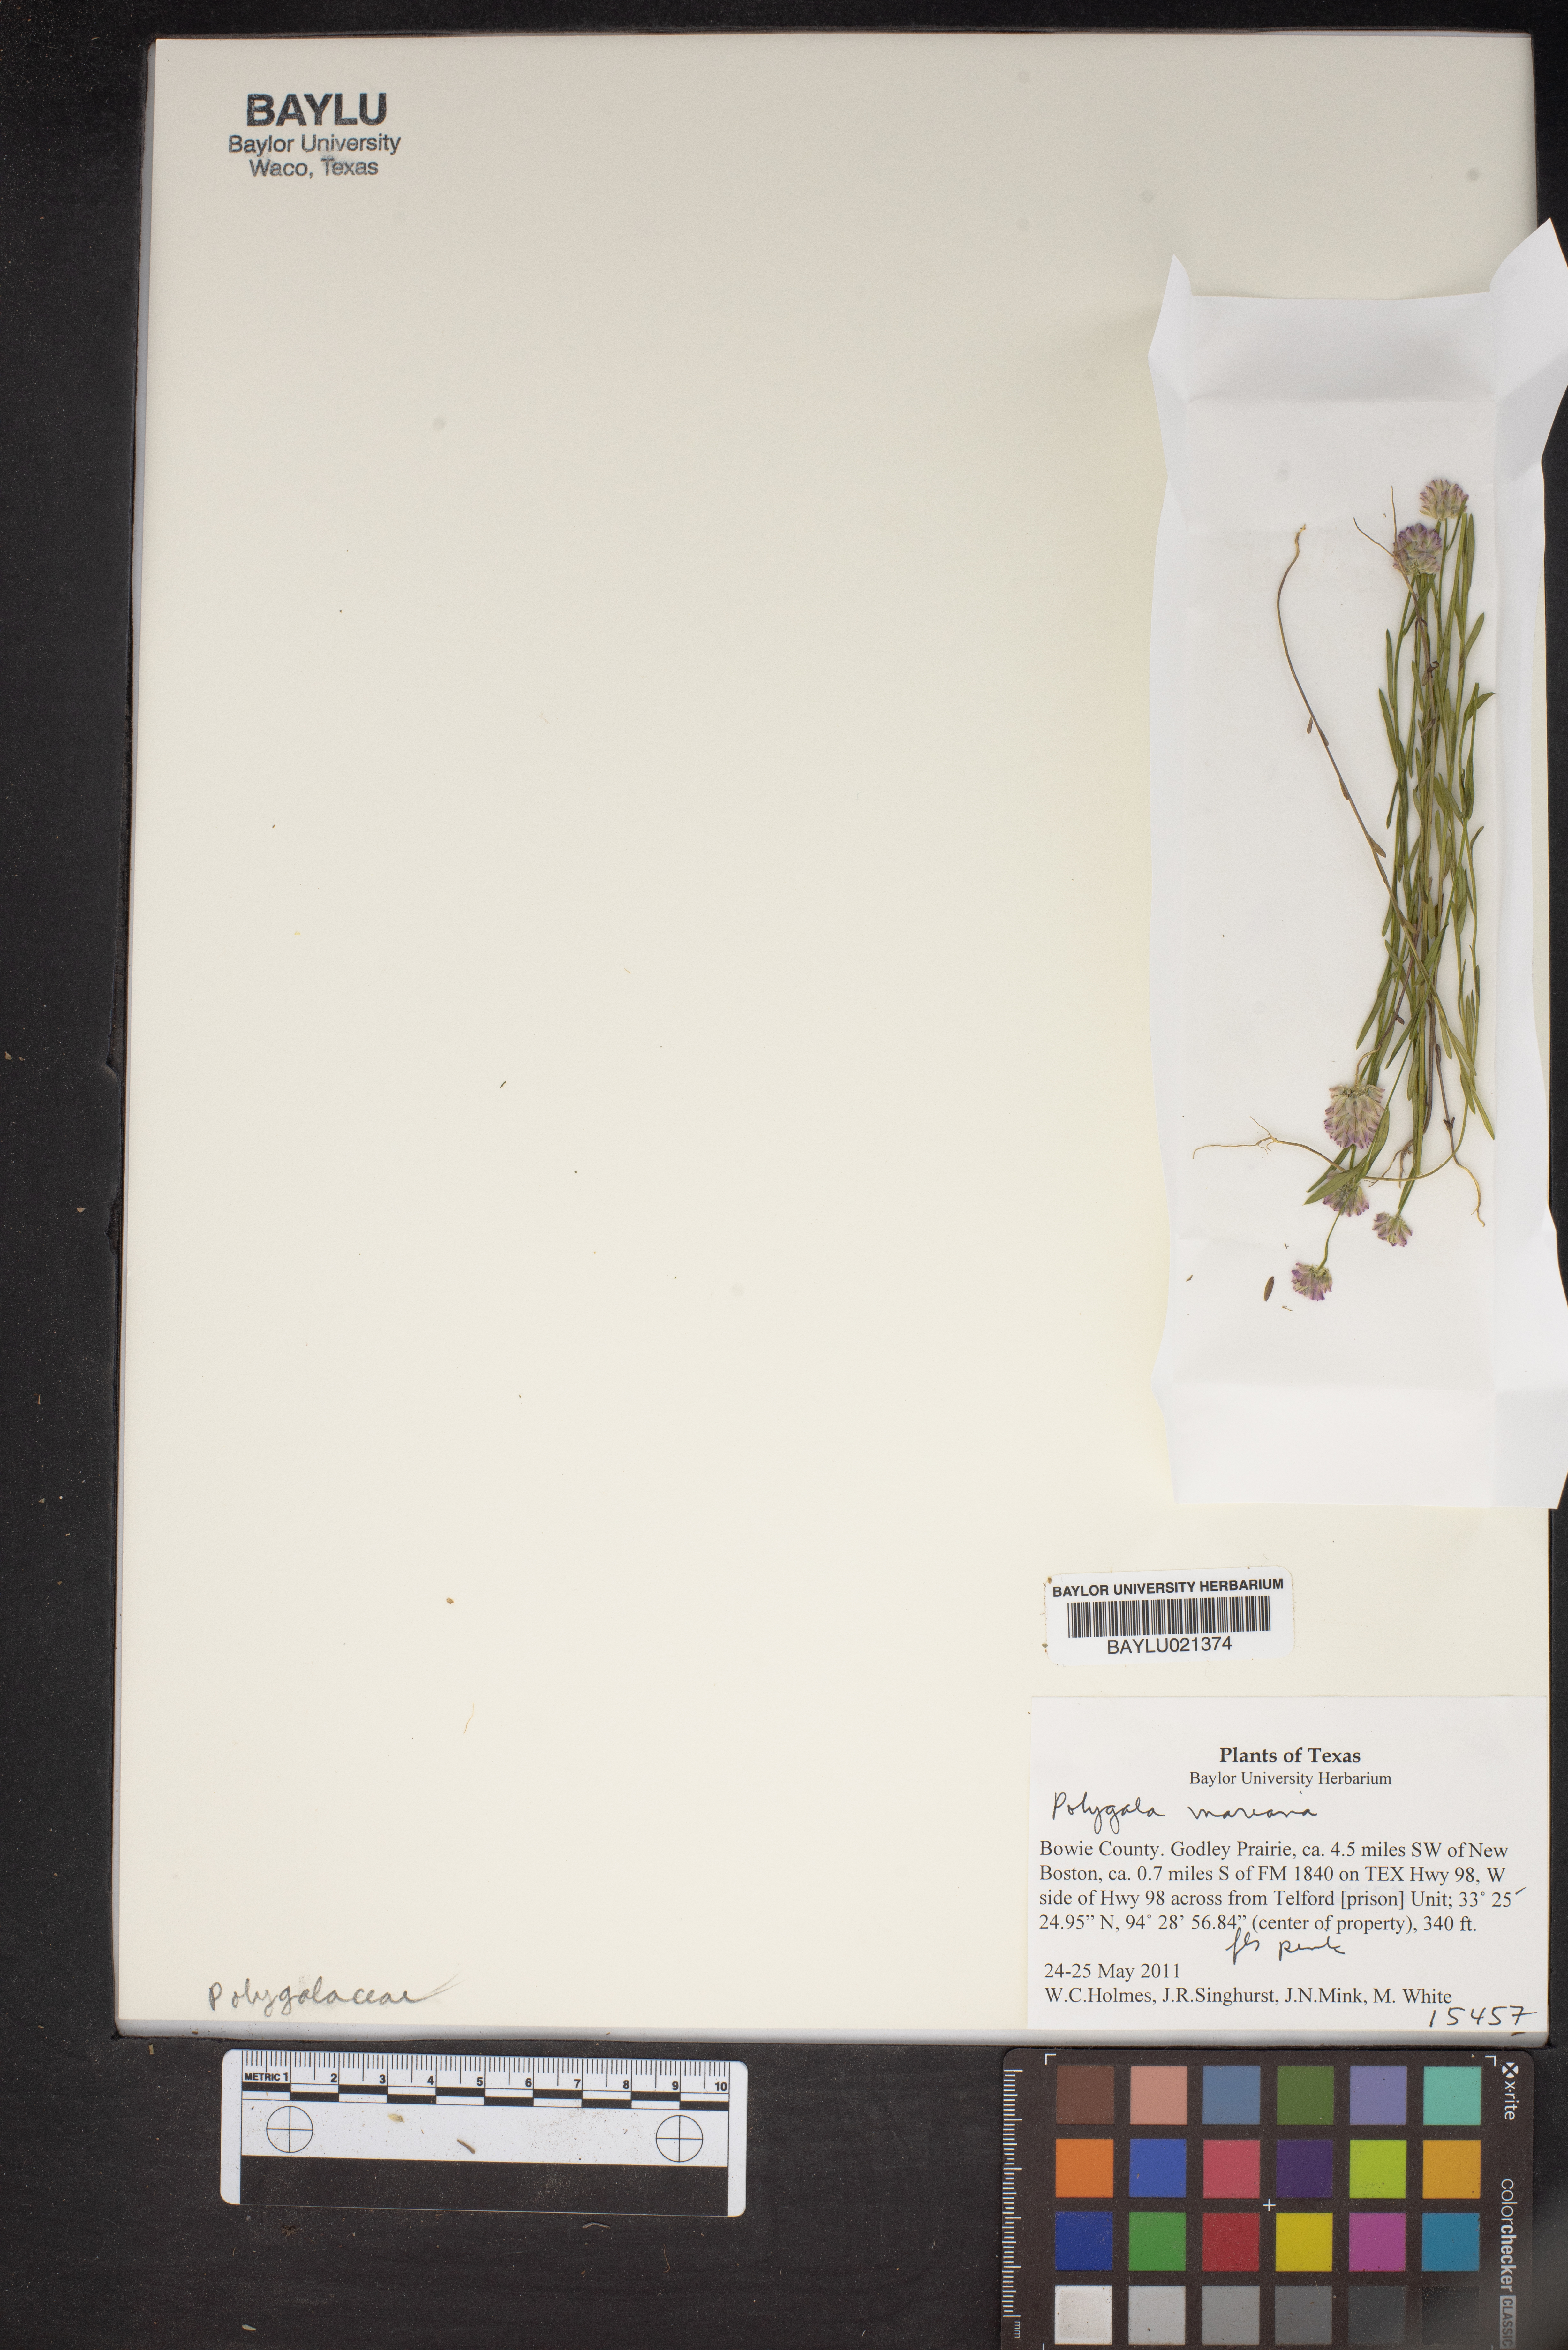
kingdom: Plantae
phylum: Tracheophyta
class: Magnoliopsida
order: Fabales
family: Polygalaceae
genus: Polygala
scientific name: Polygala mariana
